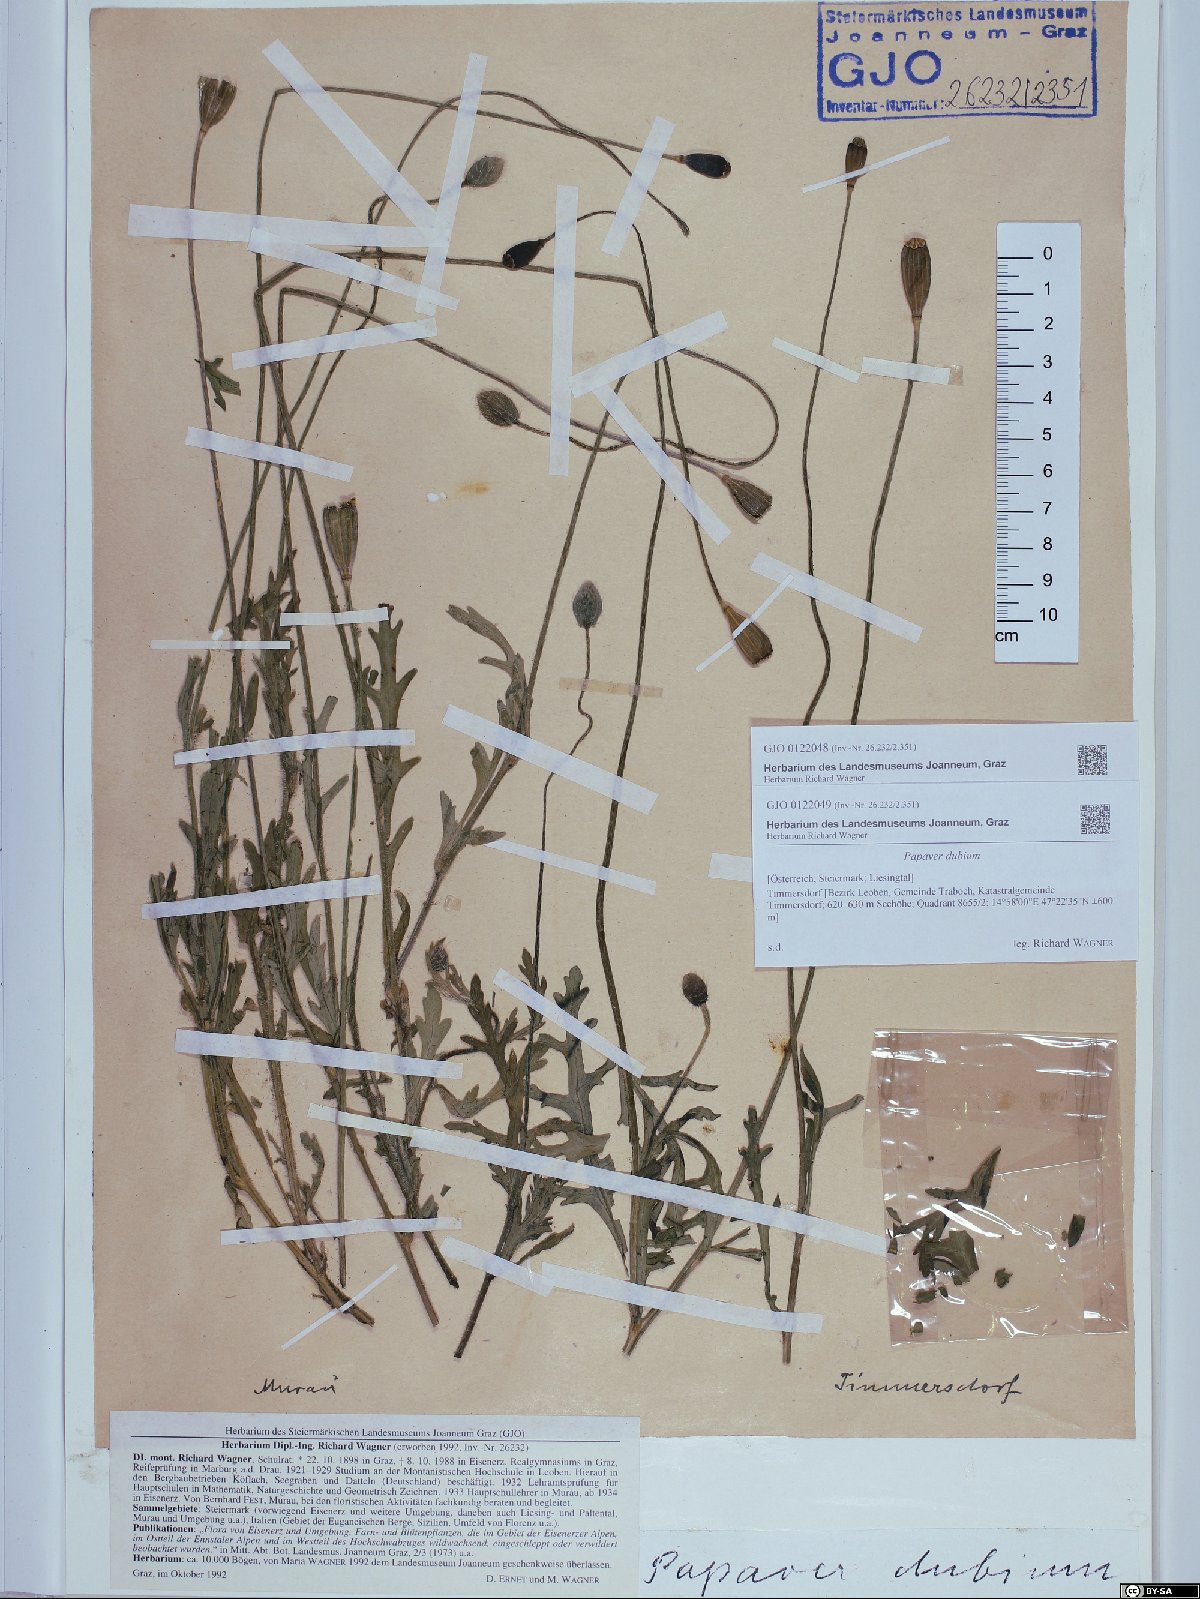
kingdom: Plantae
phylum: Tracheophyta
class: Magnoliopsida
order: Ranunculales
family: Papaveraceae
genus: Papaver
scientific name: Papaver dubium
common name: Long-headed poppy
